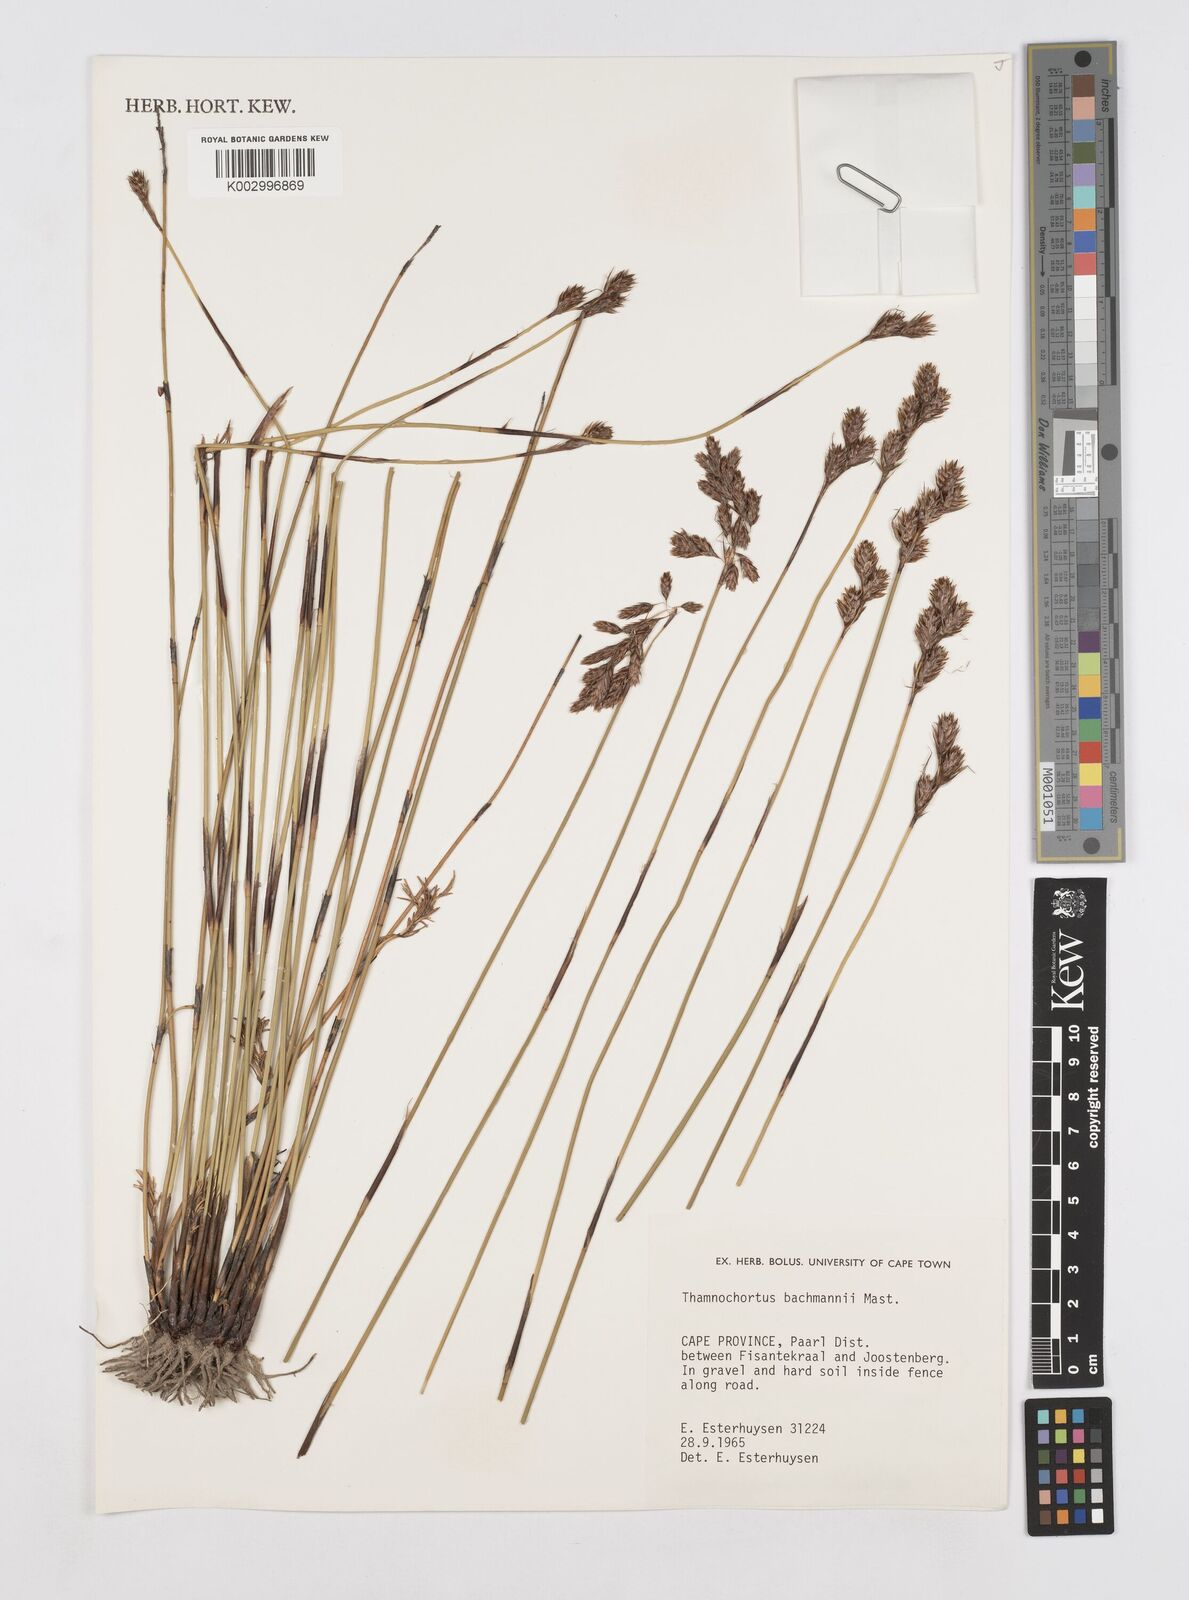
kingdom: Plantae
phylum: Tracheophyta
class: Liliopsida
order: Poales
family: Restionaceae
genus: Thamnochortus
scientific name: Thamnochortus bachmannii
